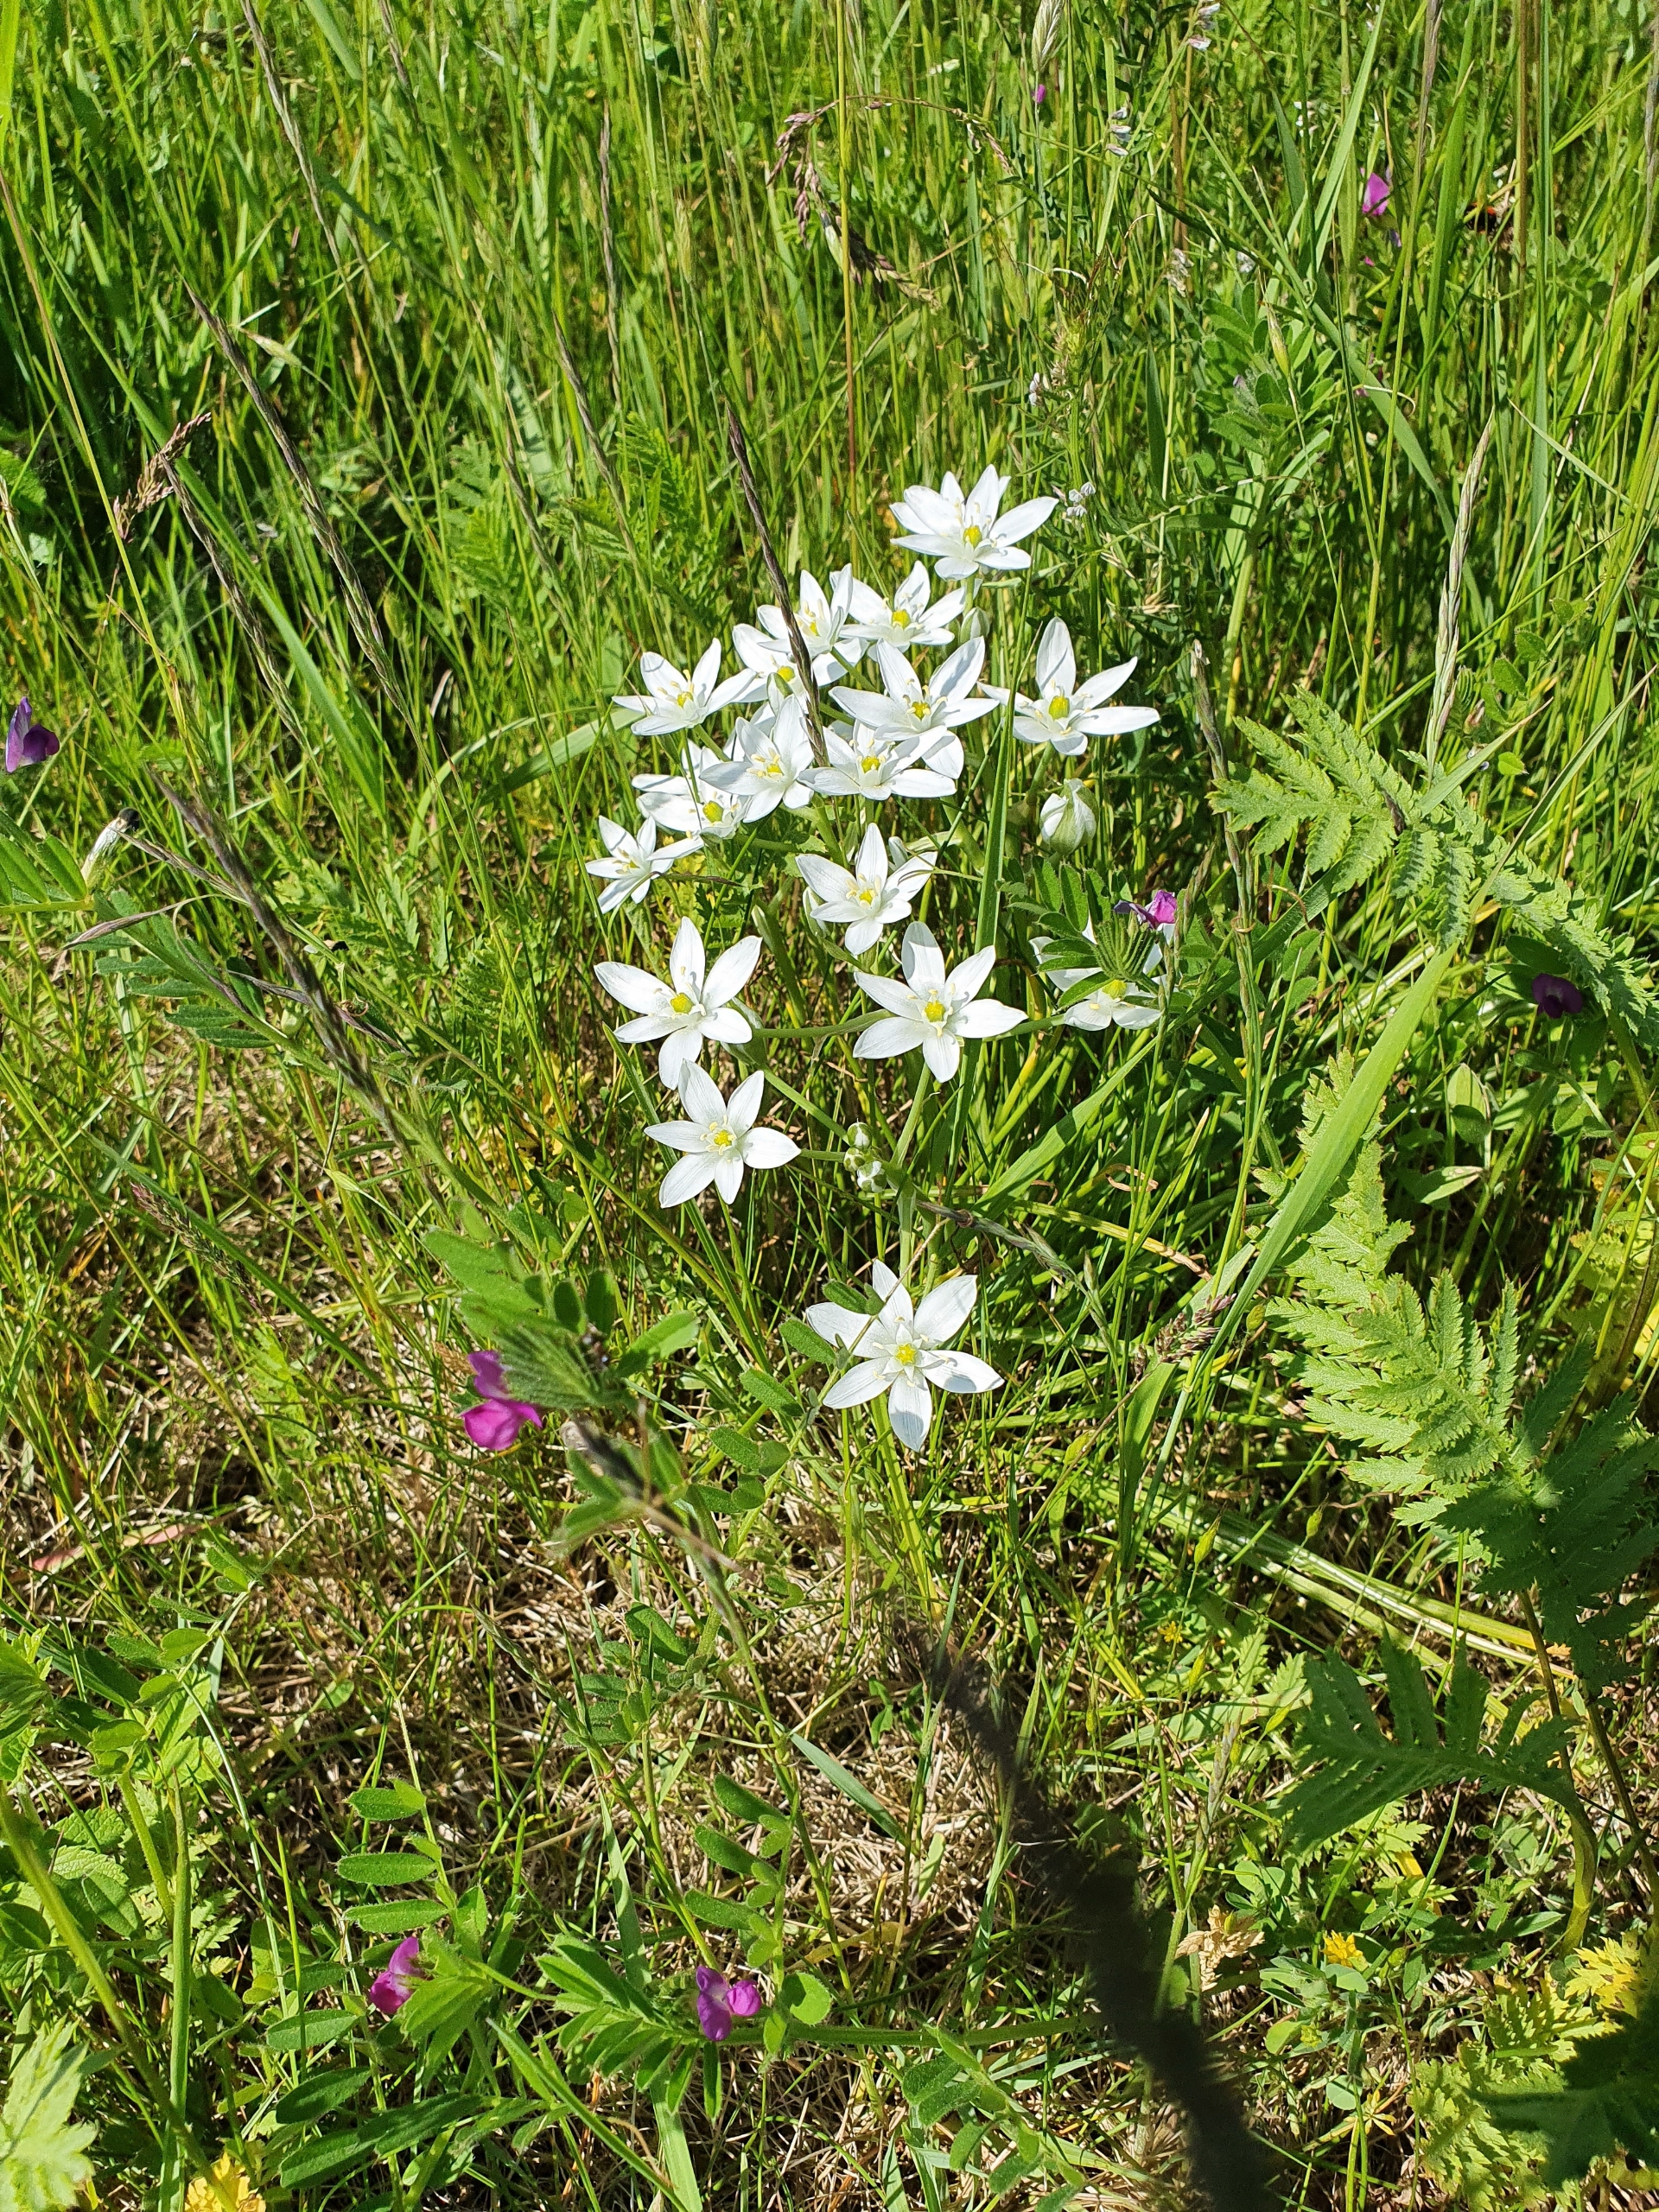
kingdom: Plantae
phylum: Tracheophyta
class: Liliopsida
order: Asparagales
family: Asparagaceae
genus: Ornithogalum
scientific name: Ornithogalum umbellatum
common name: Kost-fuglemælk
